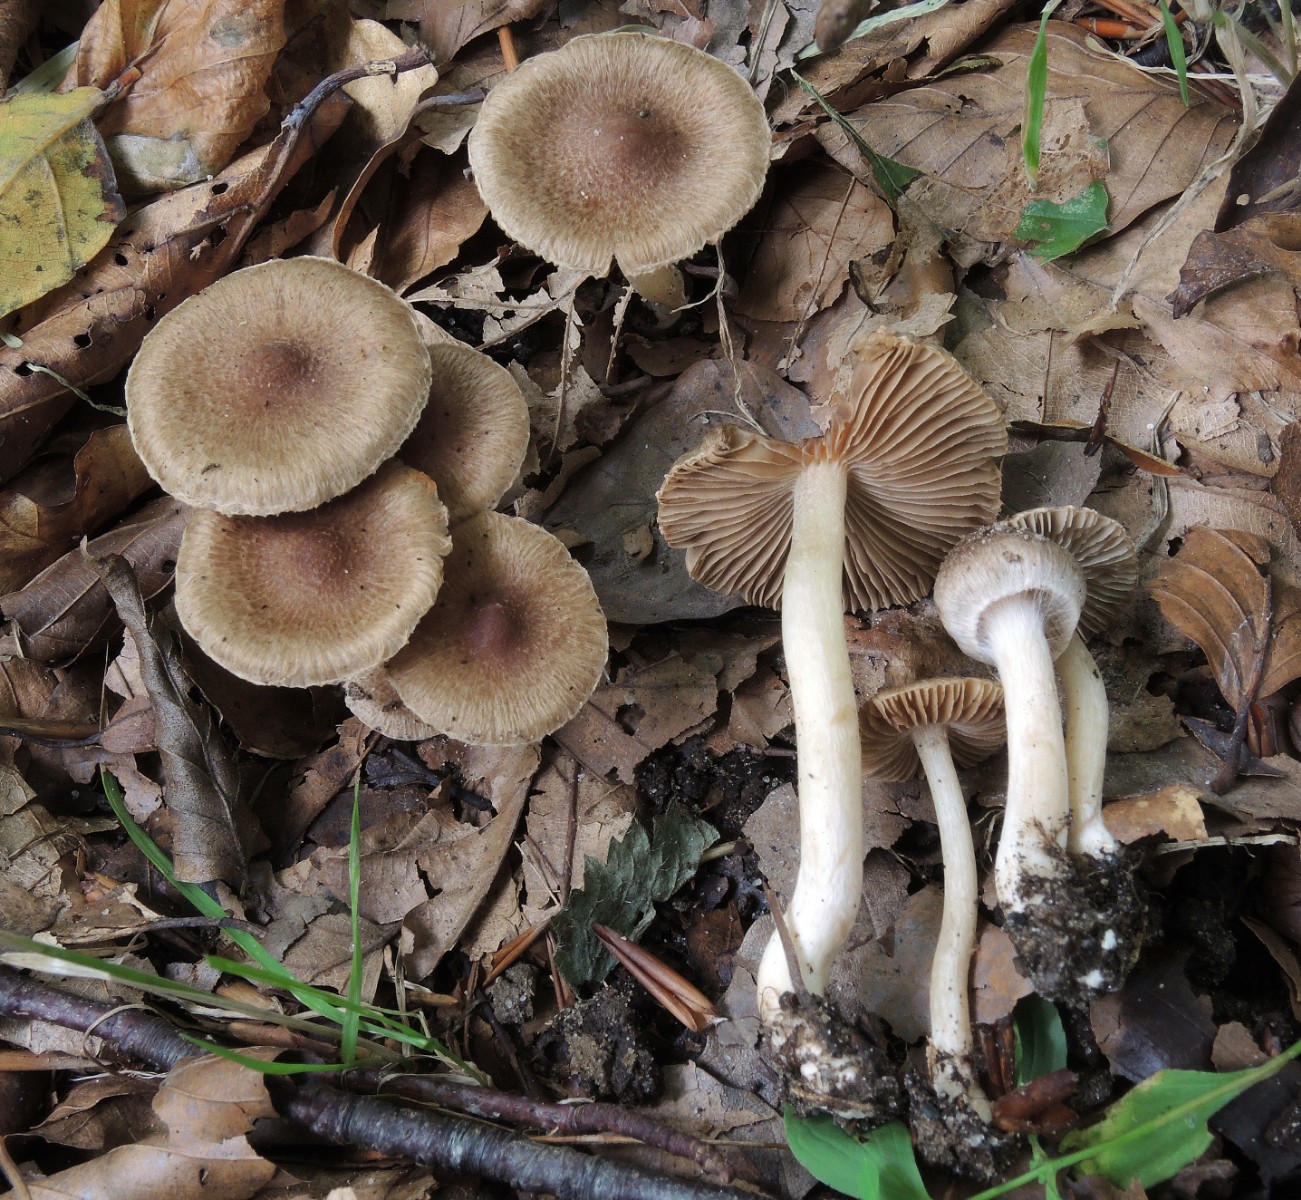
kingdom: Fungi
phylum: Basidiomycota
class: Agaricomycetes
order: Agaricales
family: Inocybaceae
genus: Inocybe
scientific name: Inocybe
